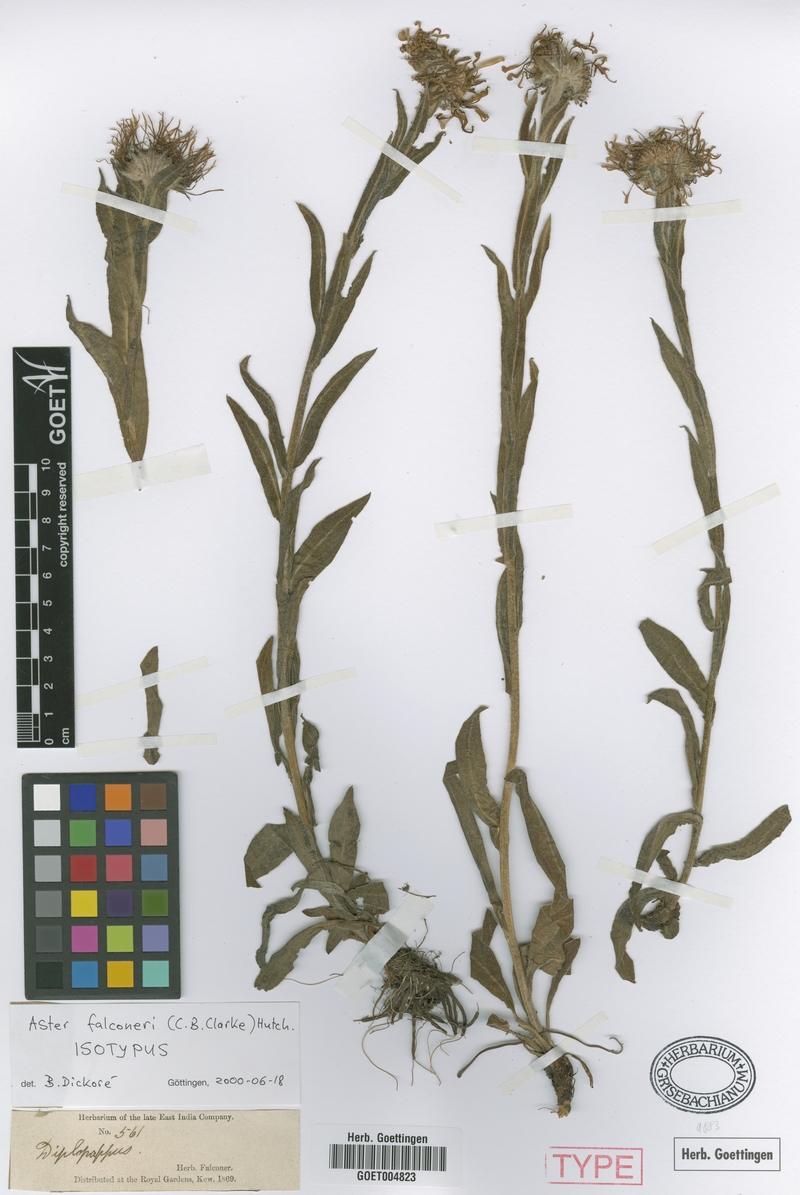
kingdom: Plantae
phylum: Tracheophyta
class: Magnoliopsida
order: Asterales
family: Asteraceae
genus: Tibetiodes
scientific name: Tibetiodes falconeri
